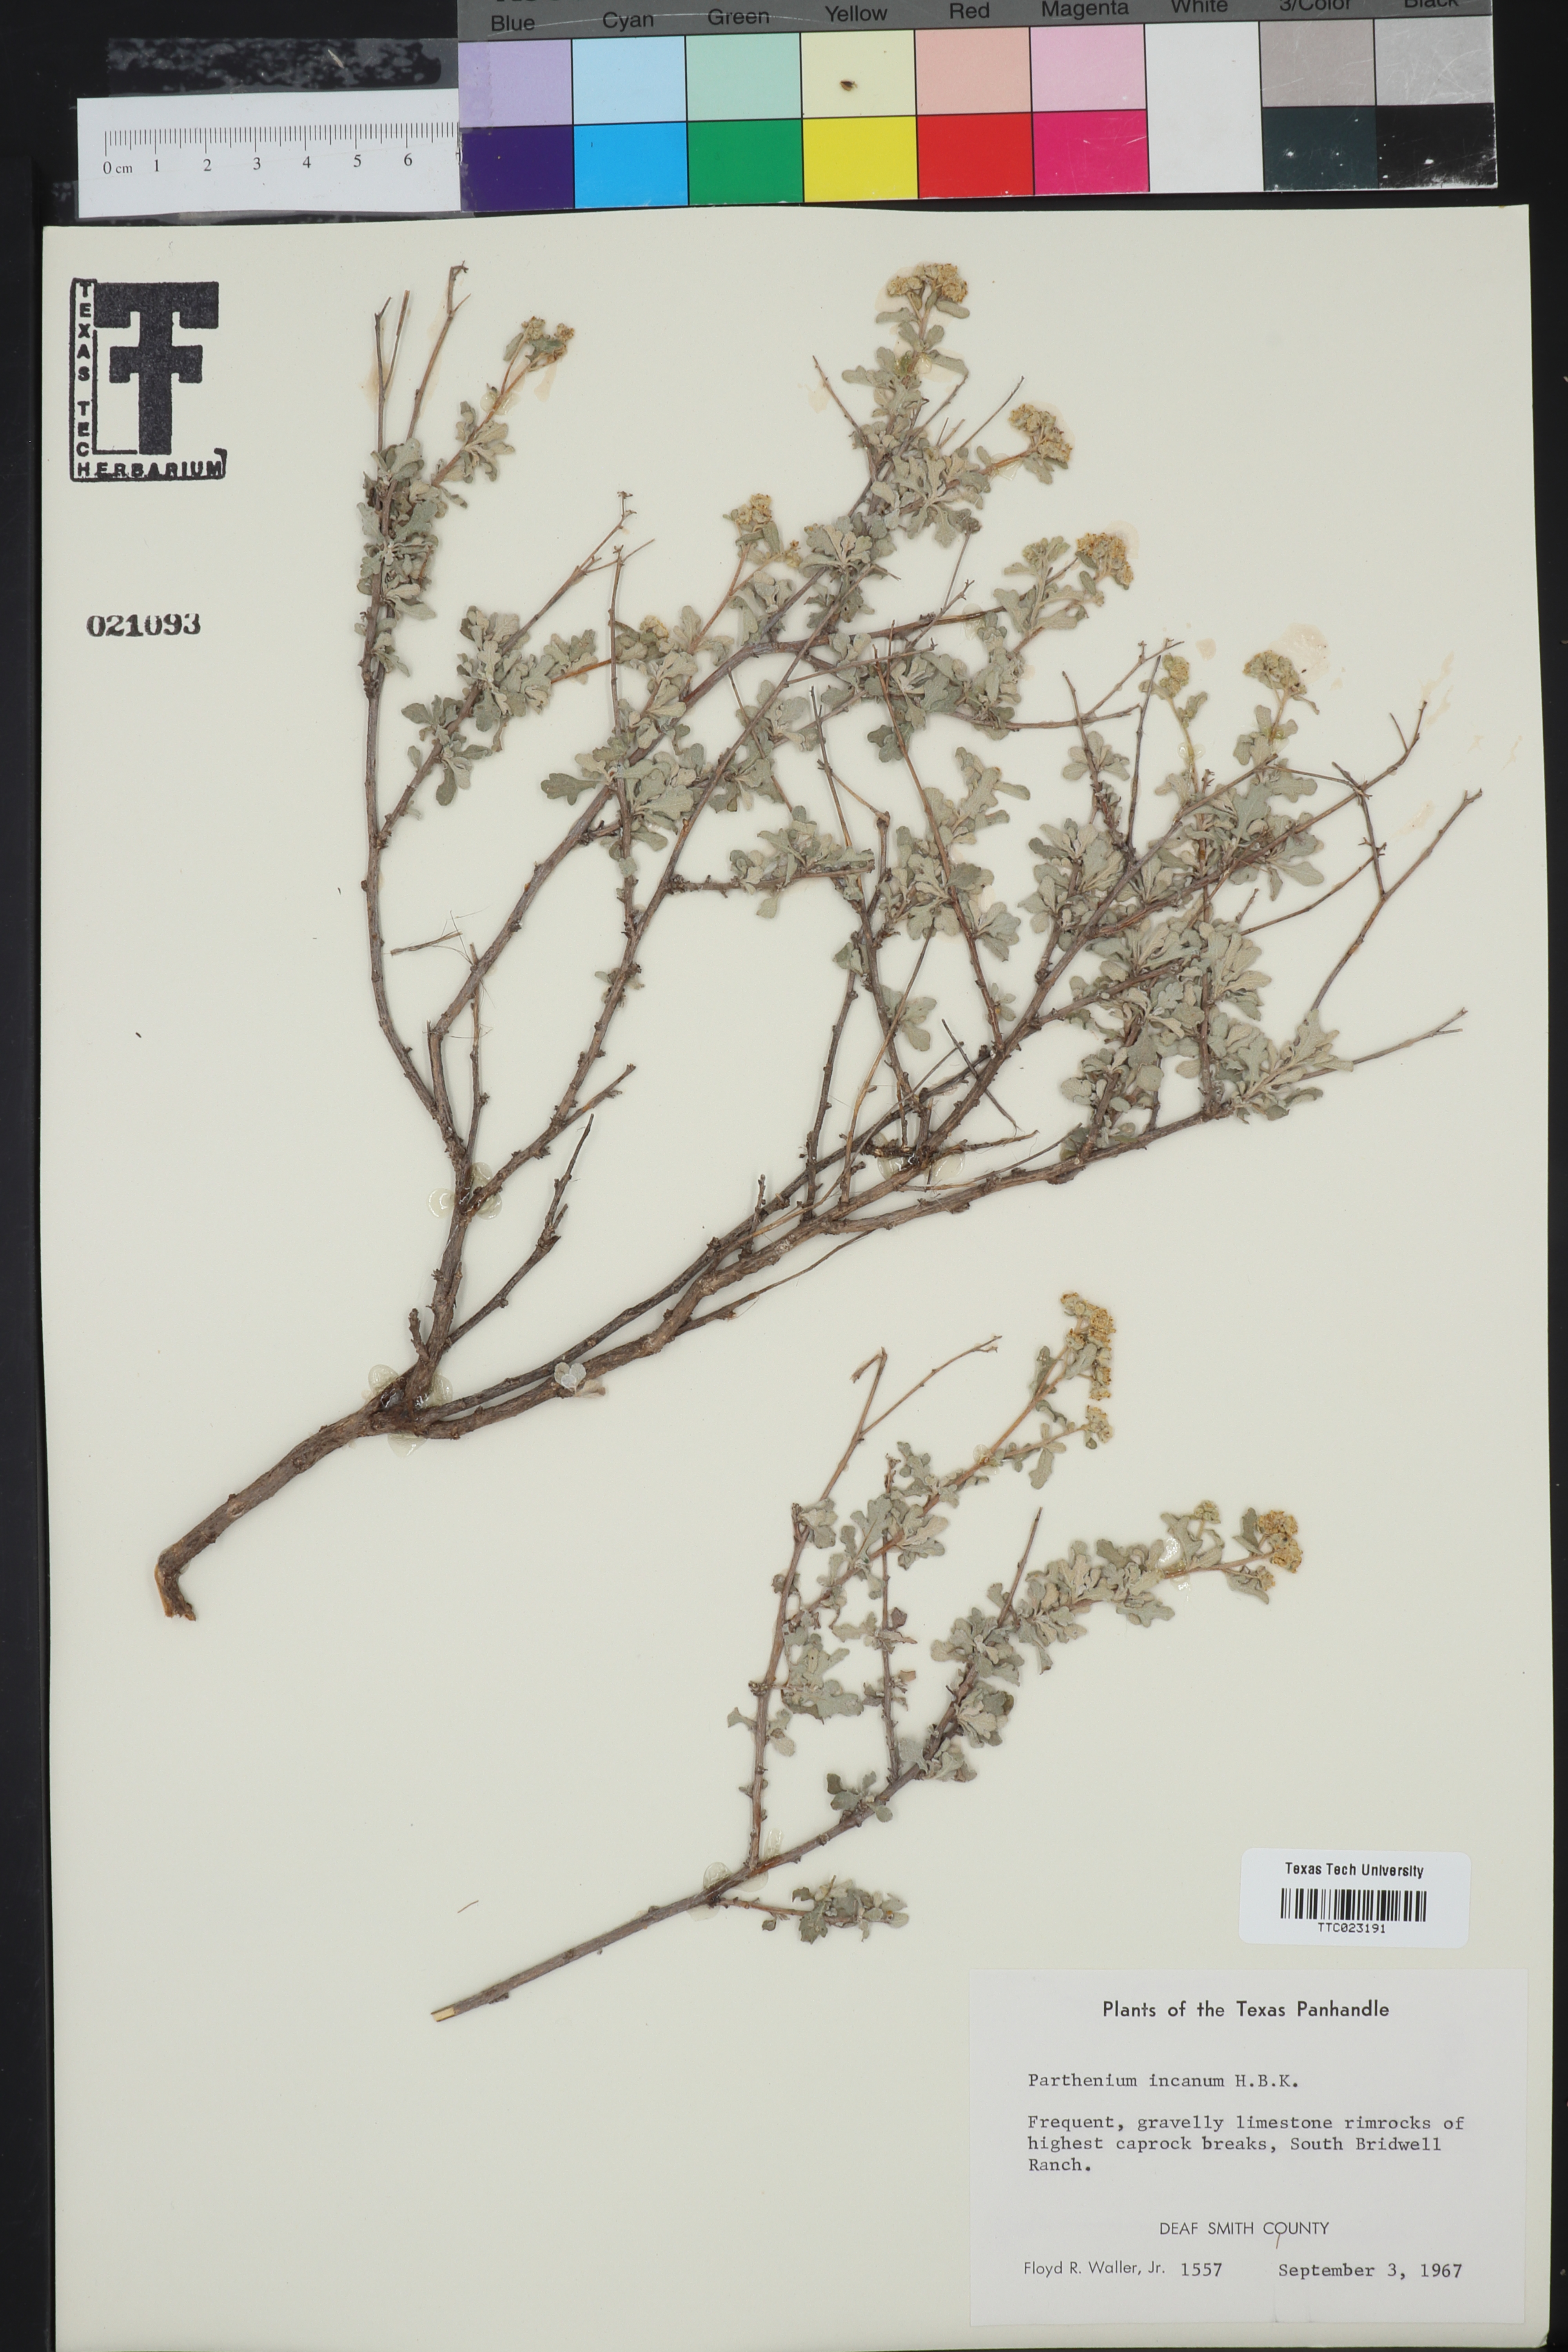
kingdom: Plantae
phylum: Tracheophyta
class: Magnoliopsida
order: Asterales
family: Asteraceae
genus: Parthenium
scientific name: Parthenium incanum
